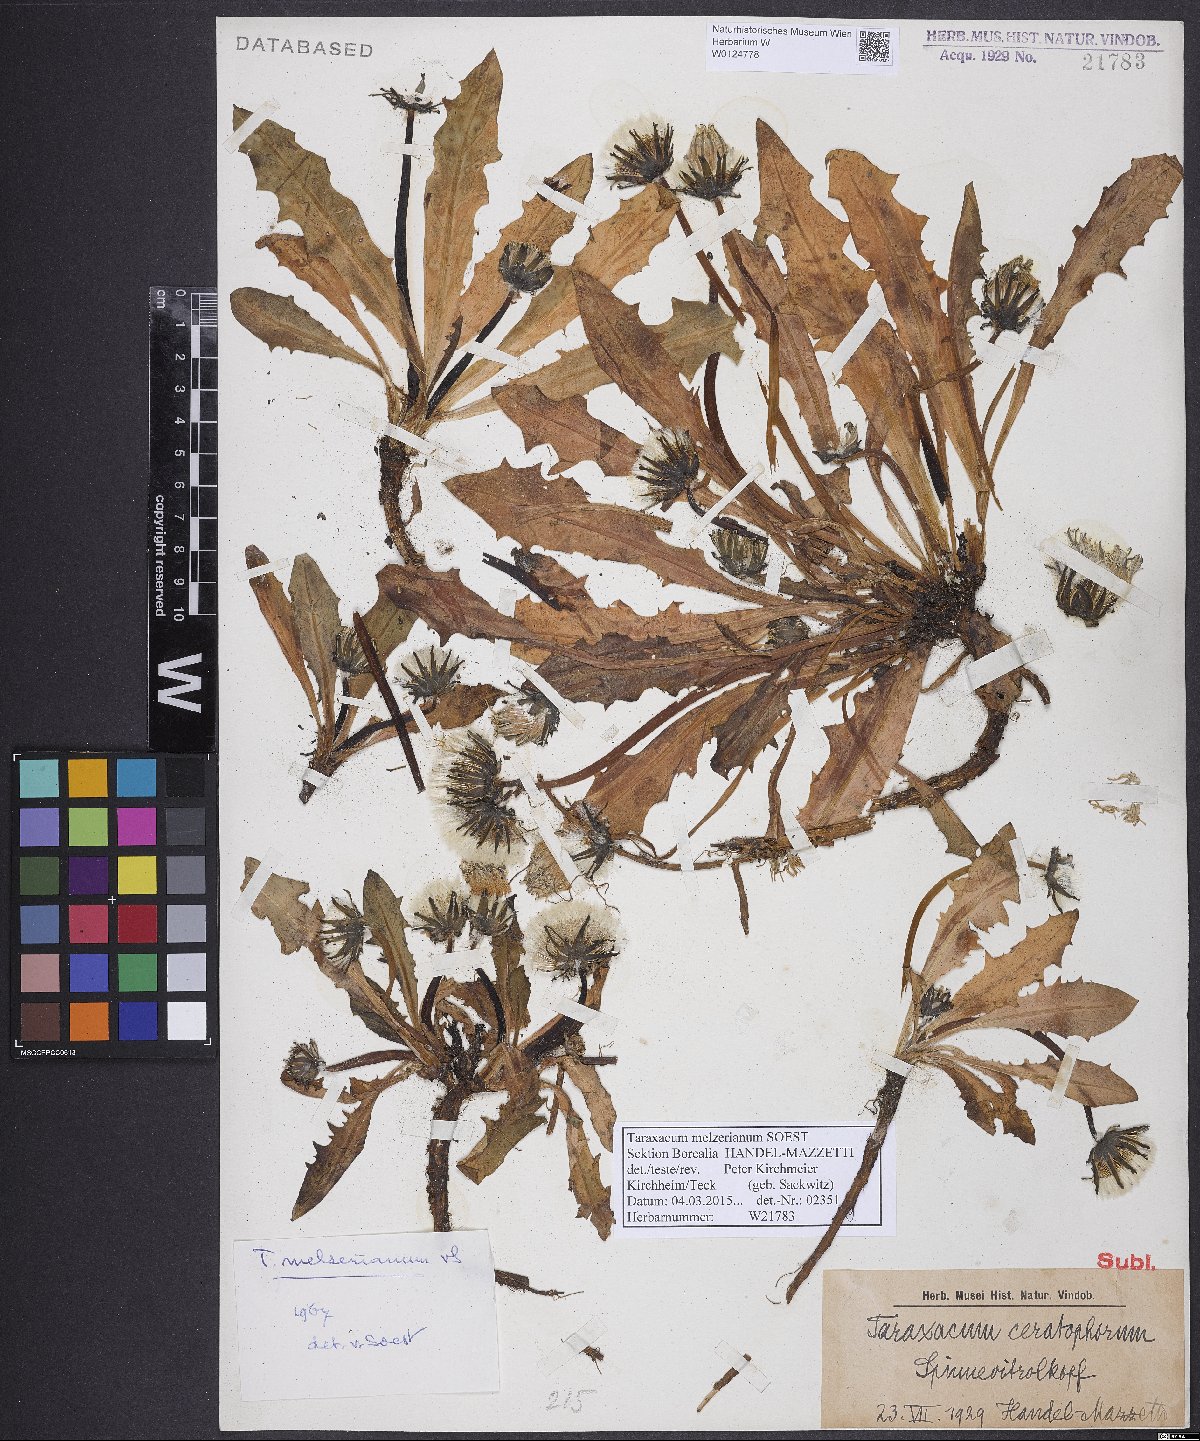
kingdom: Plantae
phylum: Tracheophyta
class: Magnoliopsida
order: Asterales
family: Asteraceae
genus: Taraxacum
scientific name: Taraxacum melzerianum
